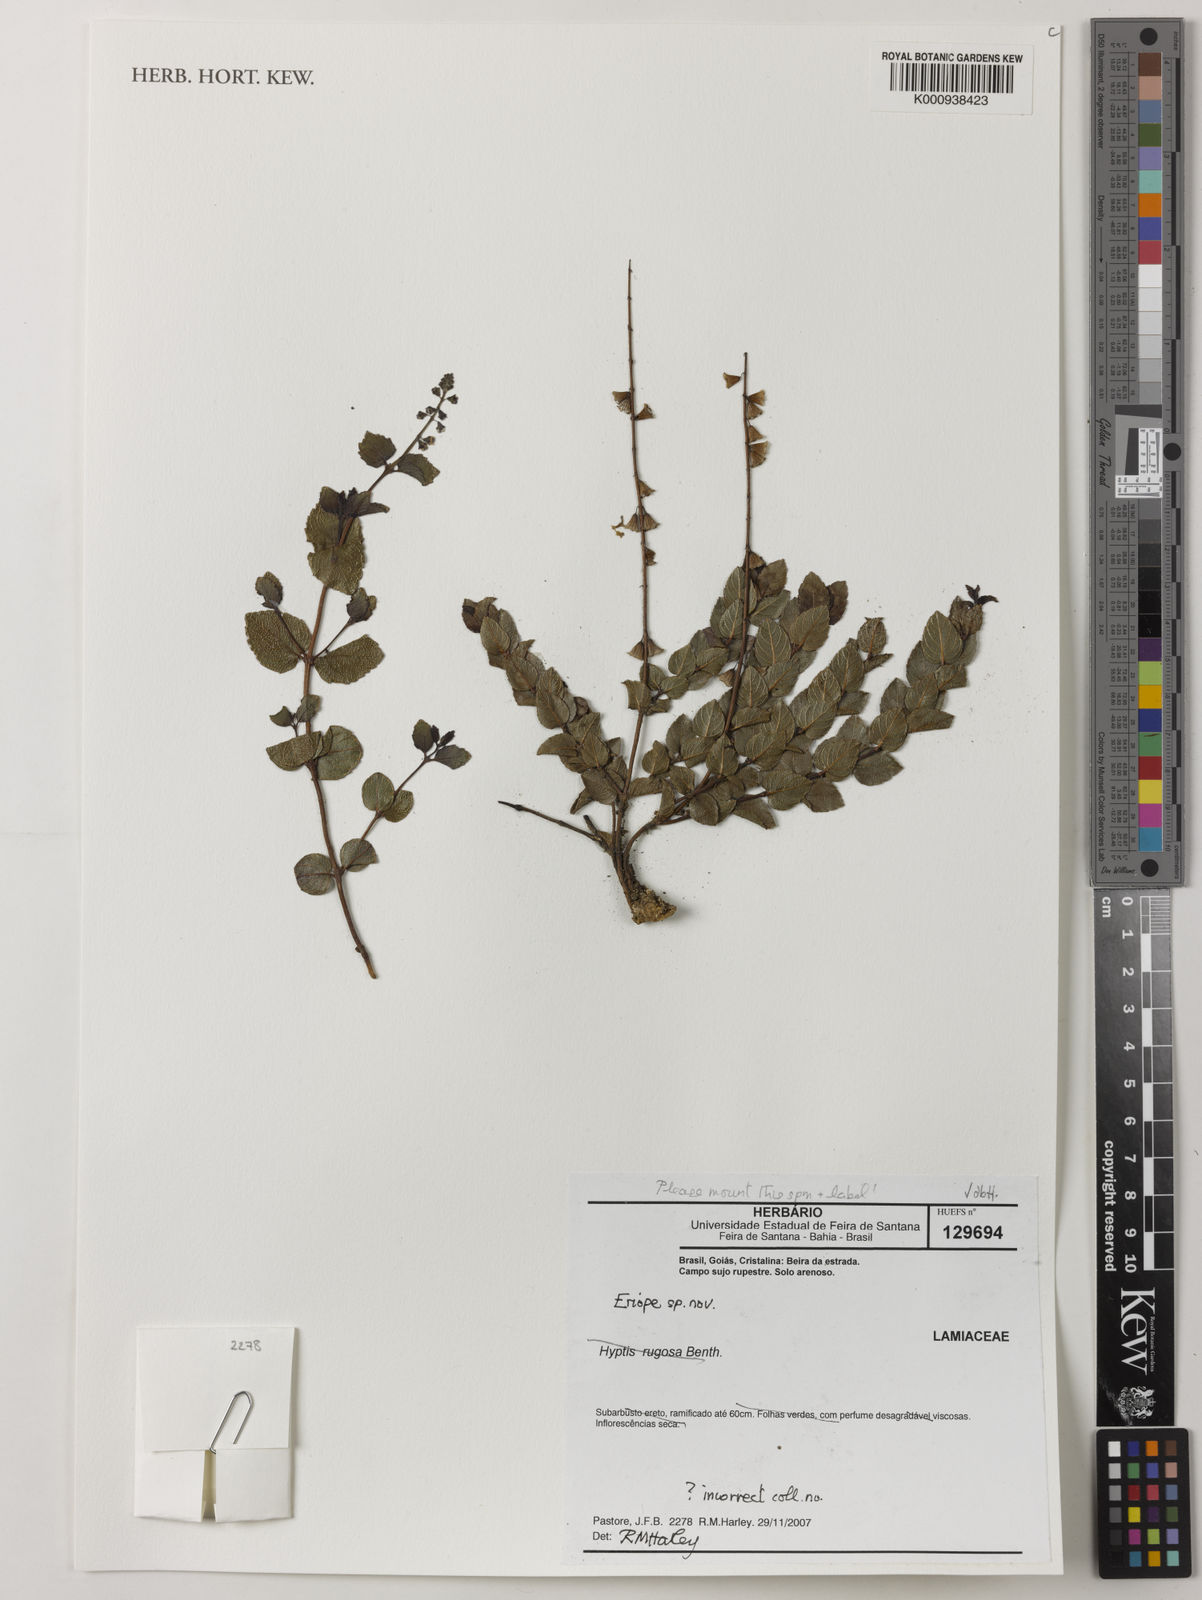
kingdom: Plantae
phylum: Tracheophyta
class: Magnoliopsida
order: Lamiales
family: Lamiaceae
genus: Eriope
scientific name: Eriope
